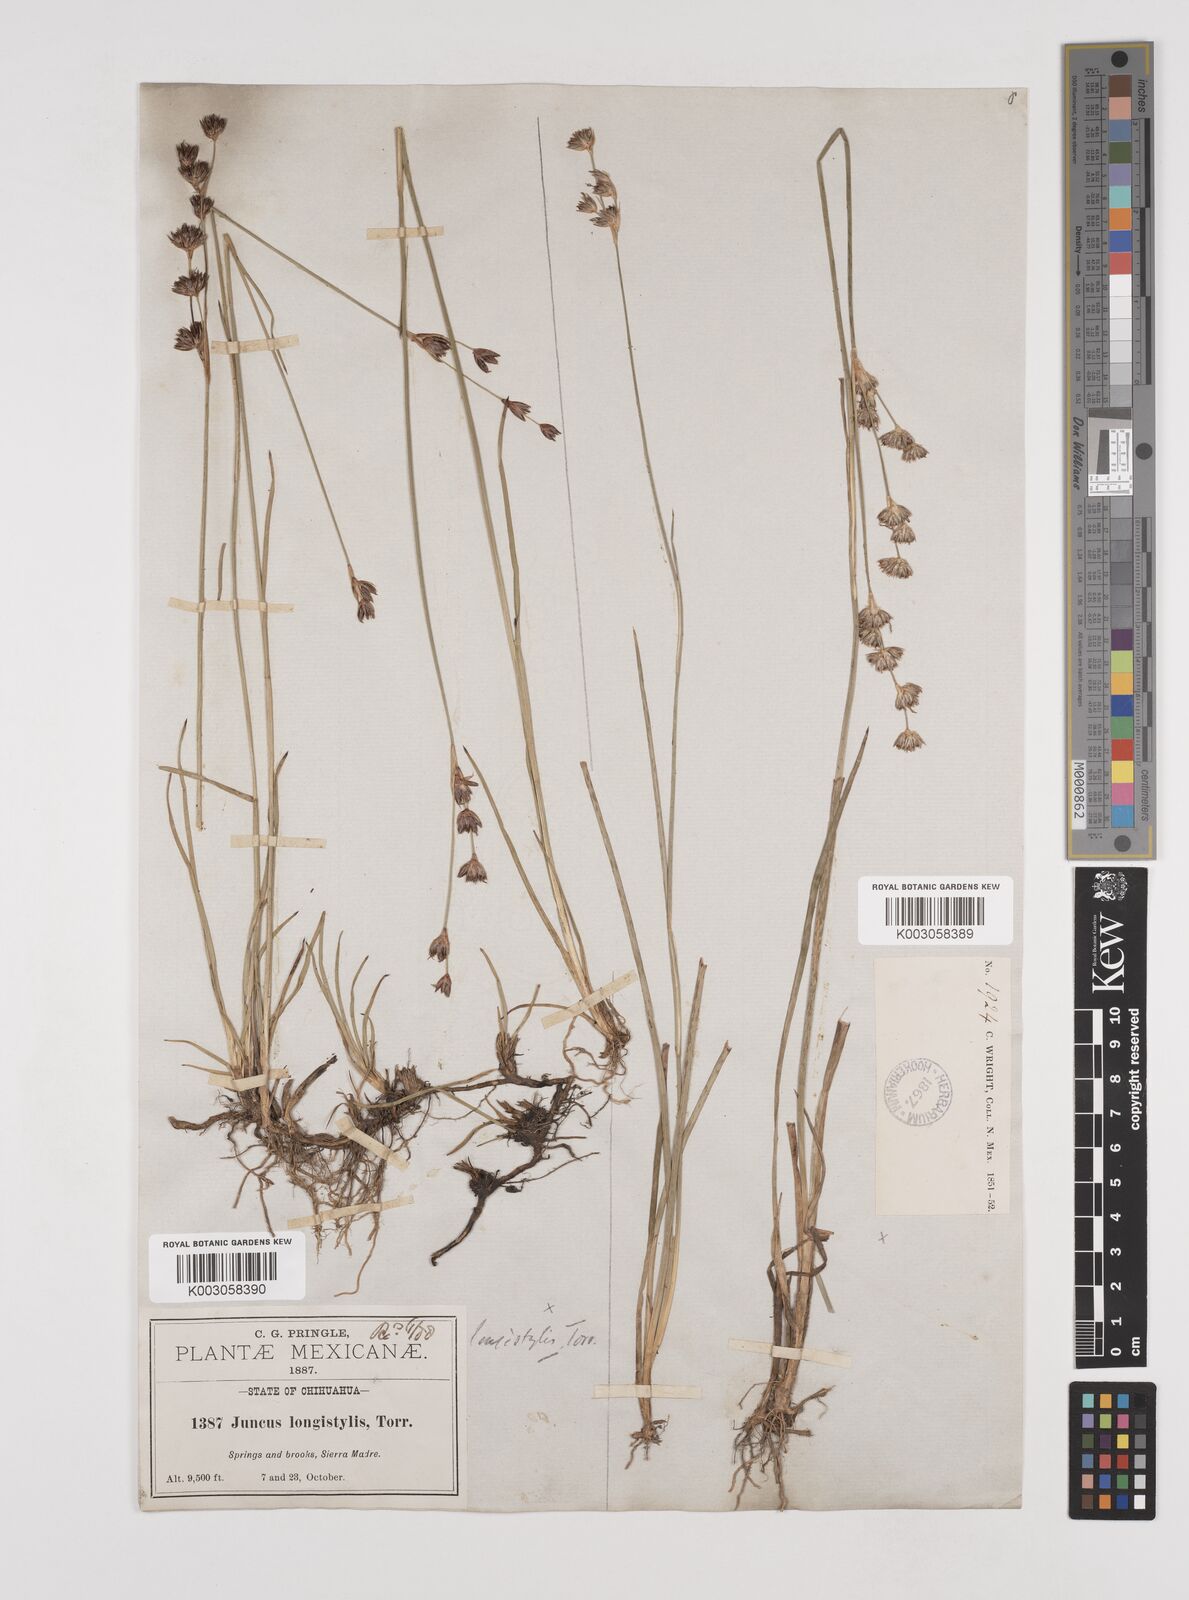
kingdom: Plantae
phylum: Tracheophyta
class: Liliopsida
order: Poales
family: Juncaceae
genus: Juncus
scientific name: Juncus longistylis
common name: Long-style rush
